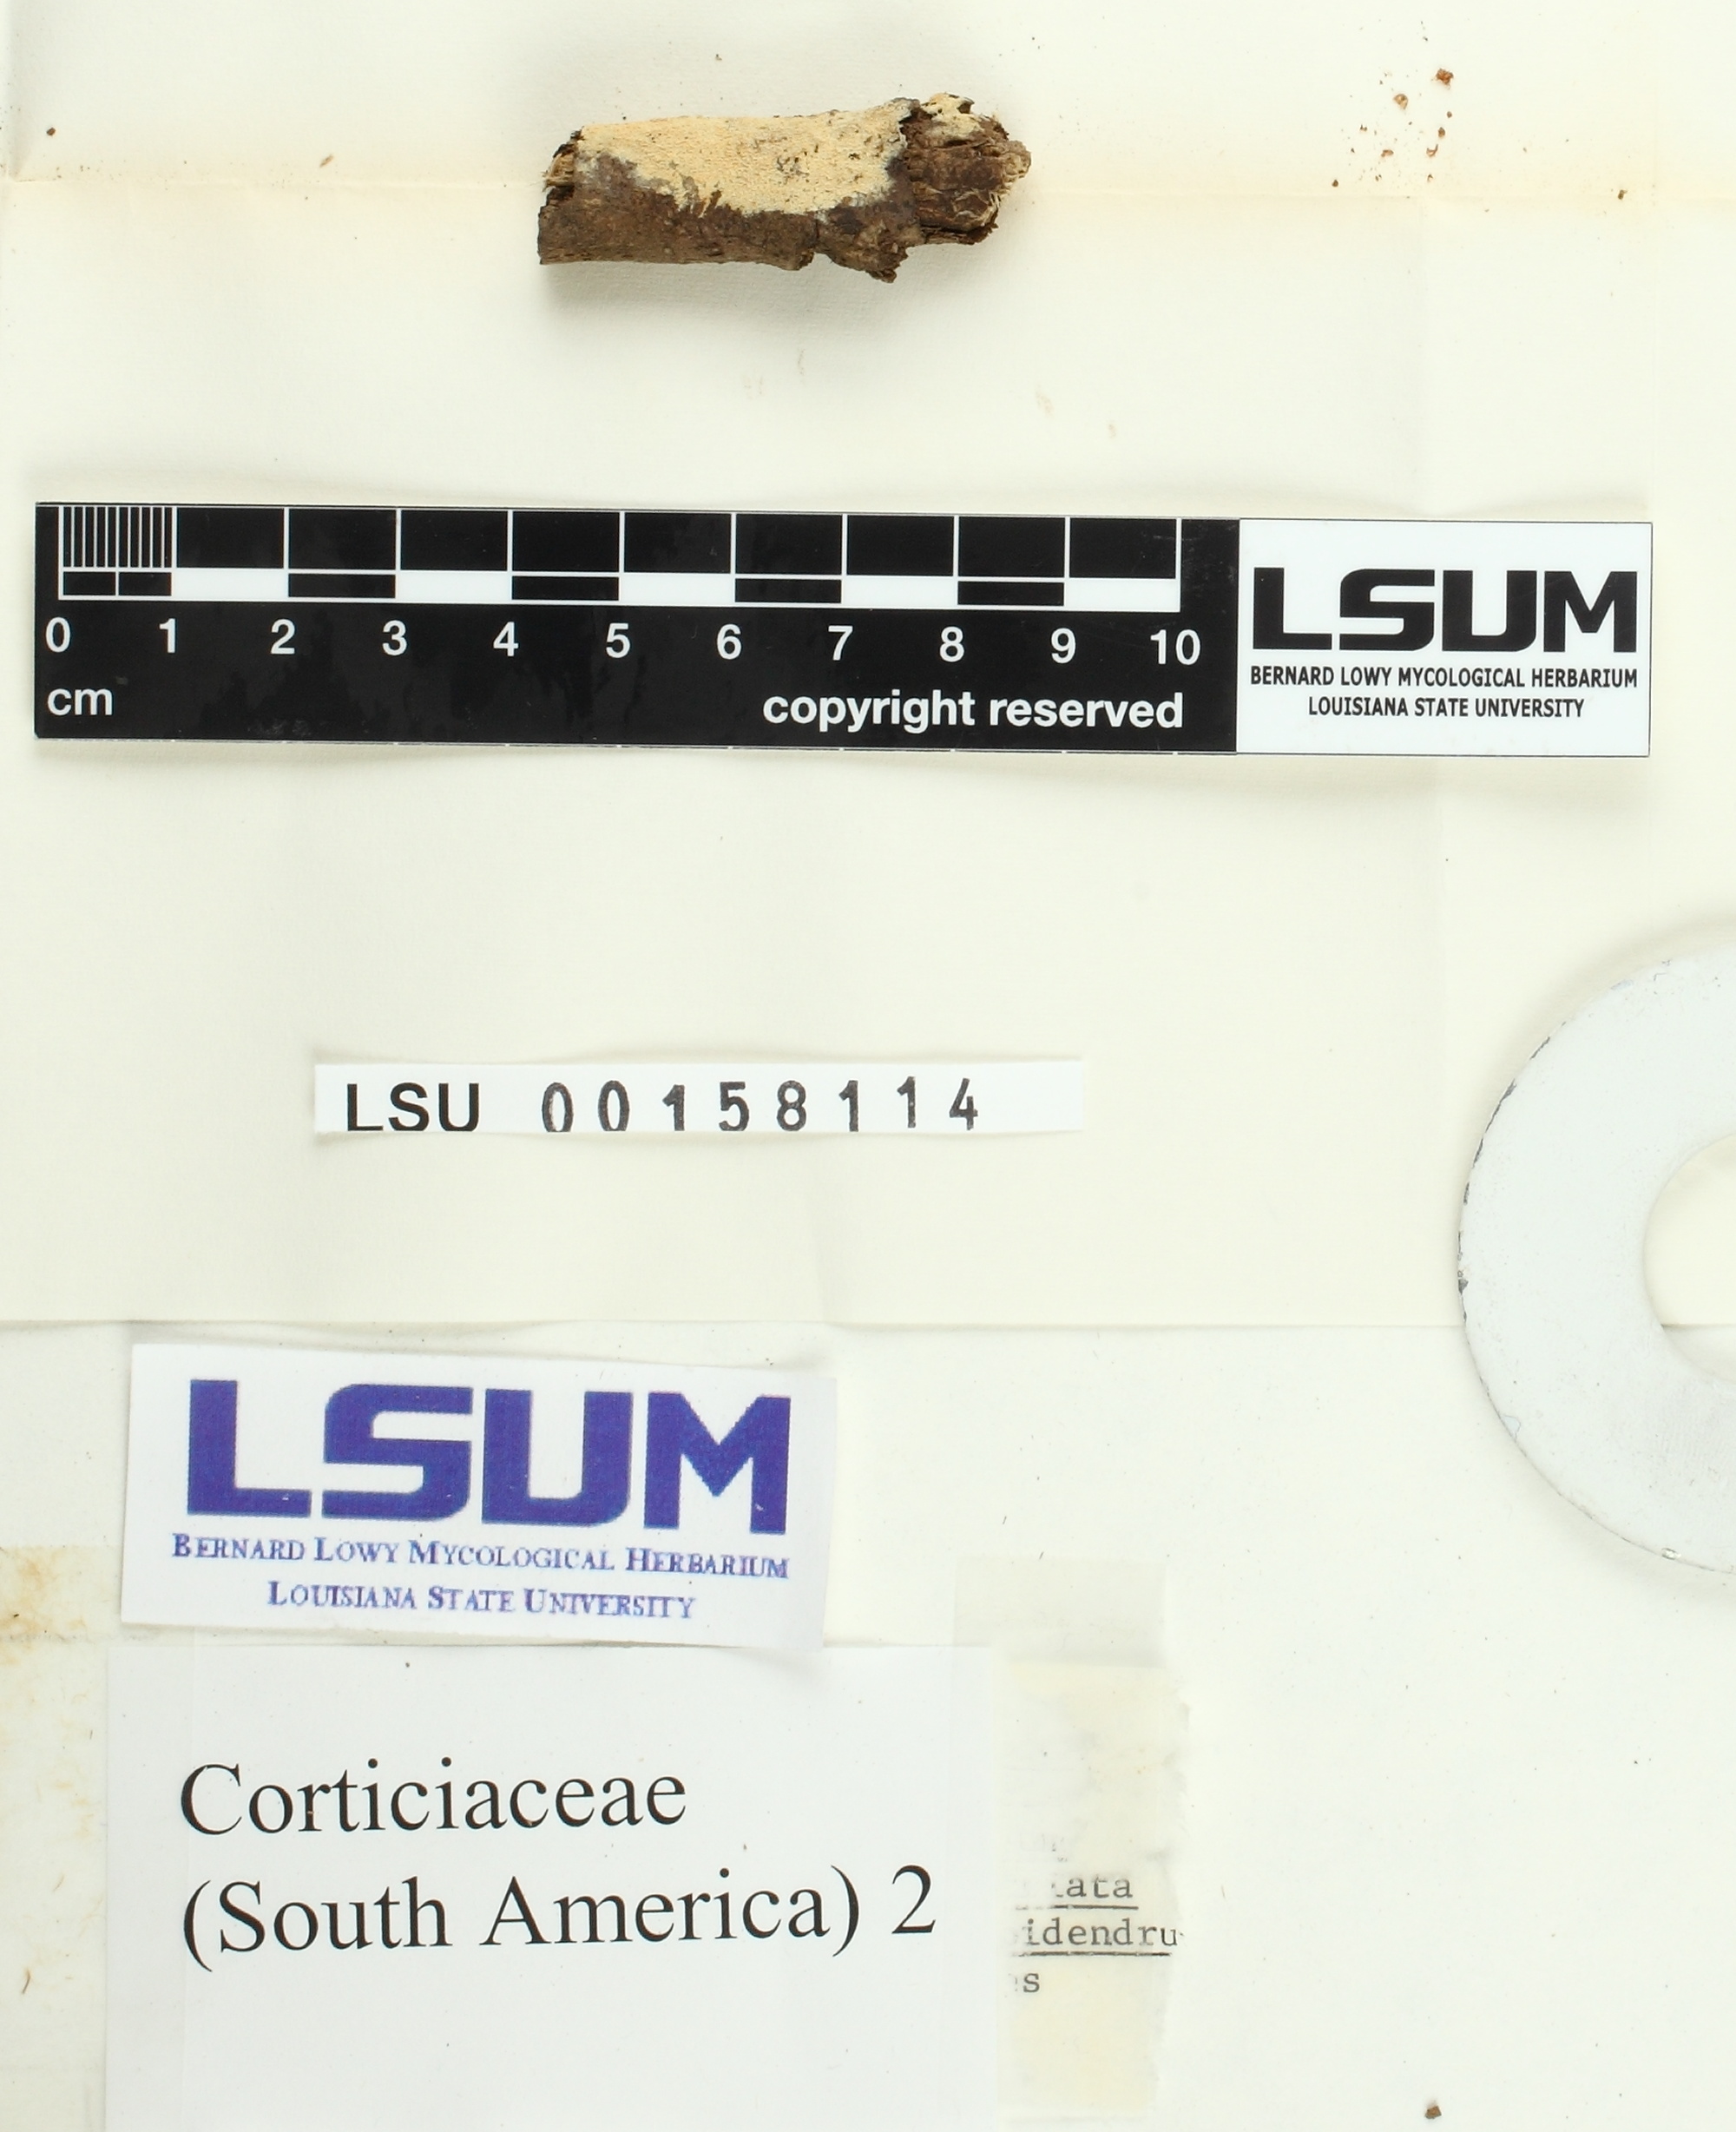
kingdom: Fungi
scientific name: Fungi
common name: Fungi
